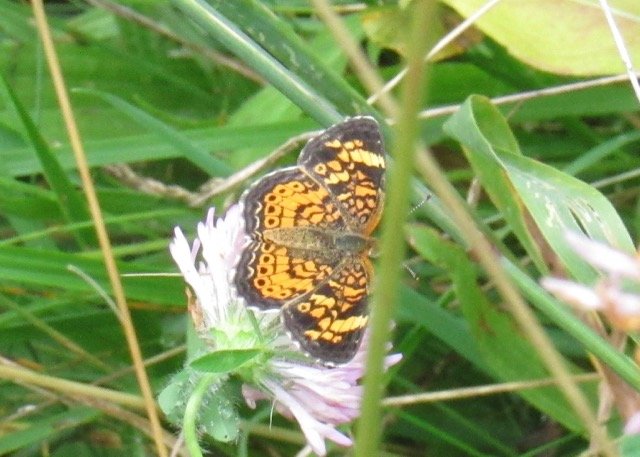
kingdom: Animalia
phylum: Arthropoda
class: Insecta
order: Lepidoptera
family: Nymphalidae
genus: Phyciodes
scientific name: Phyciodes tharos
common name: Pearl Crescent
